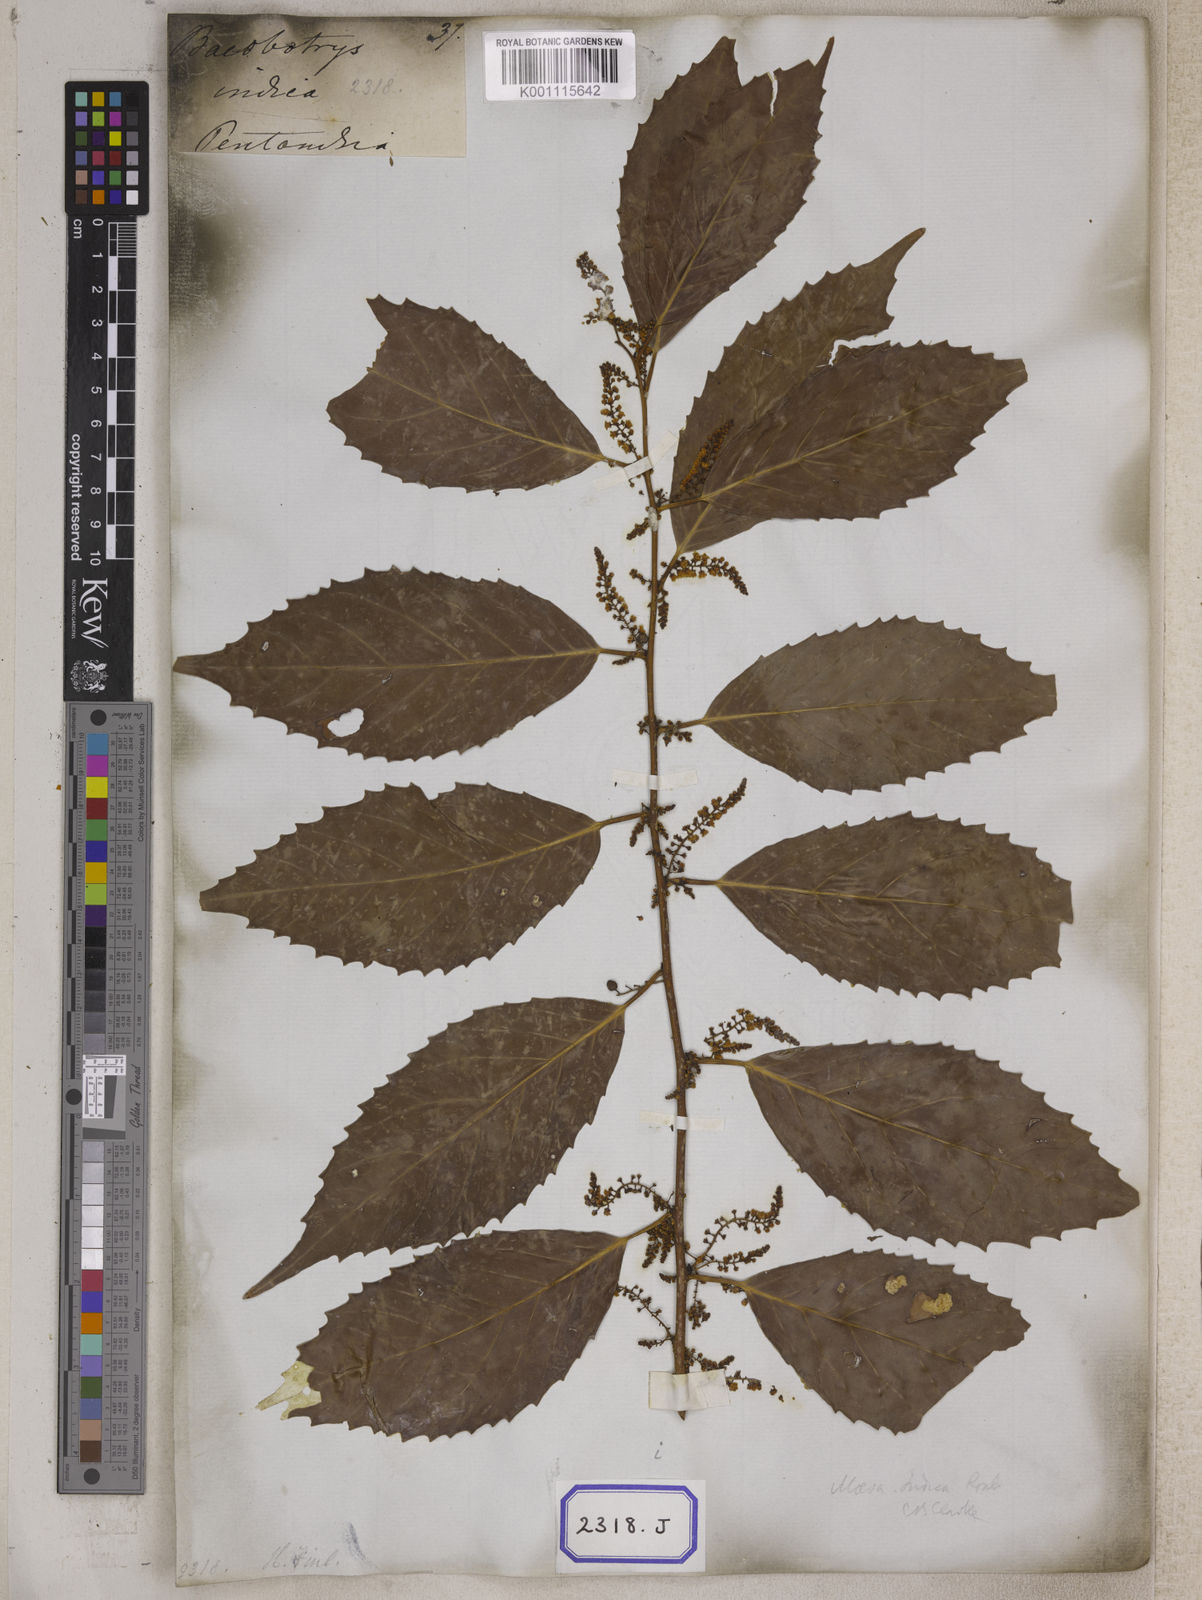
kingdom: Plantae
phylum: Tracheophyta
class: Magnoliopsida
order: Ericales
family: Primulaceae
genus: Maesa
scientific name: Maesa indica
